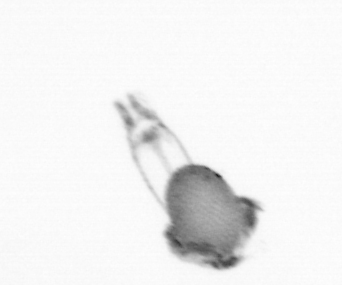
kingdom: Animalia
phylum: Arthropoda
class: Copepoda
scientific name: Copepoda
